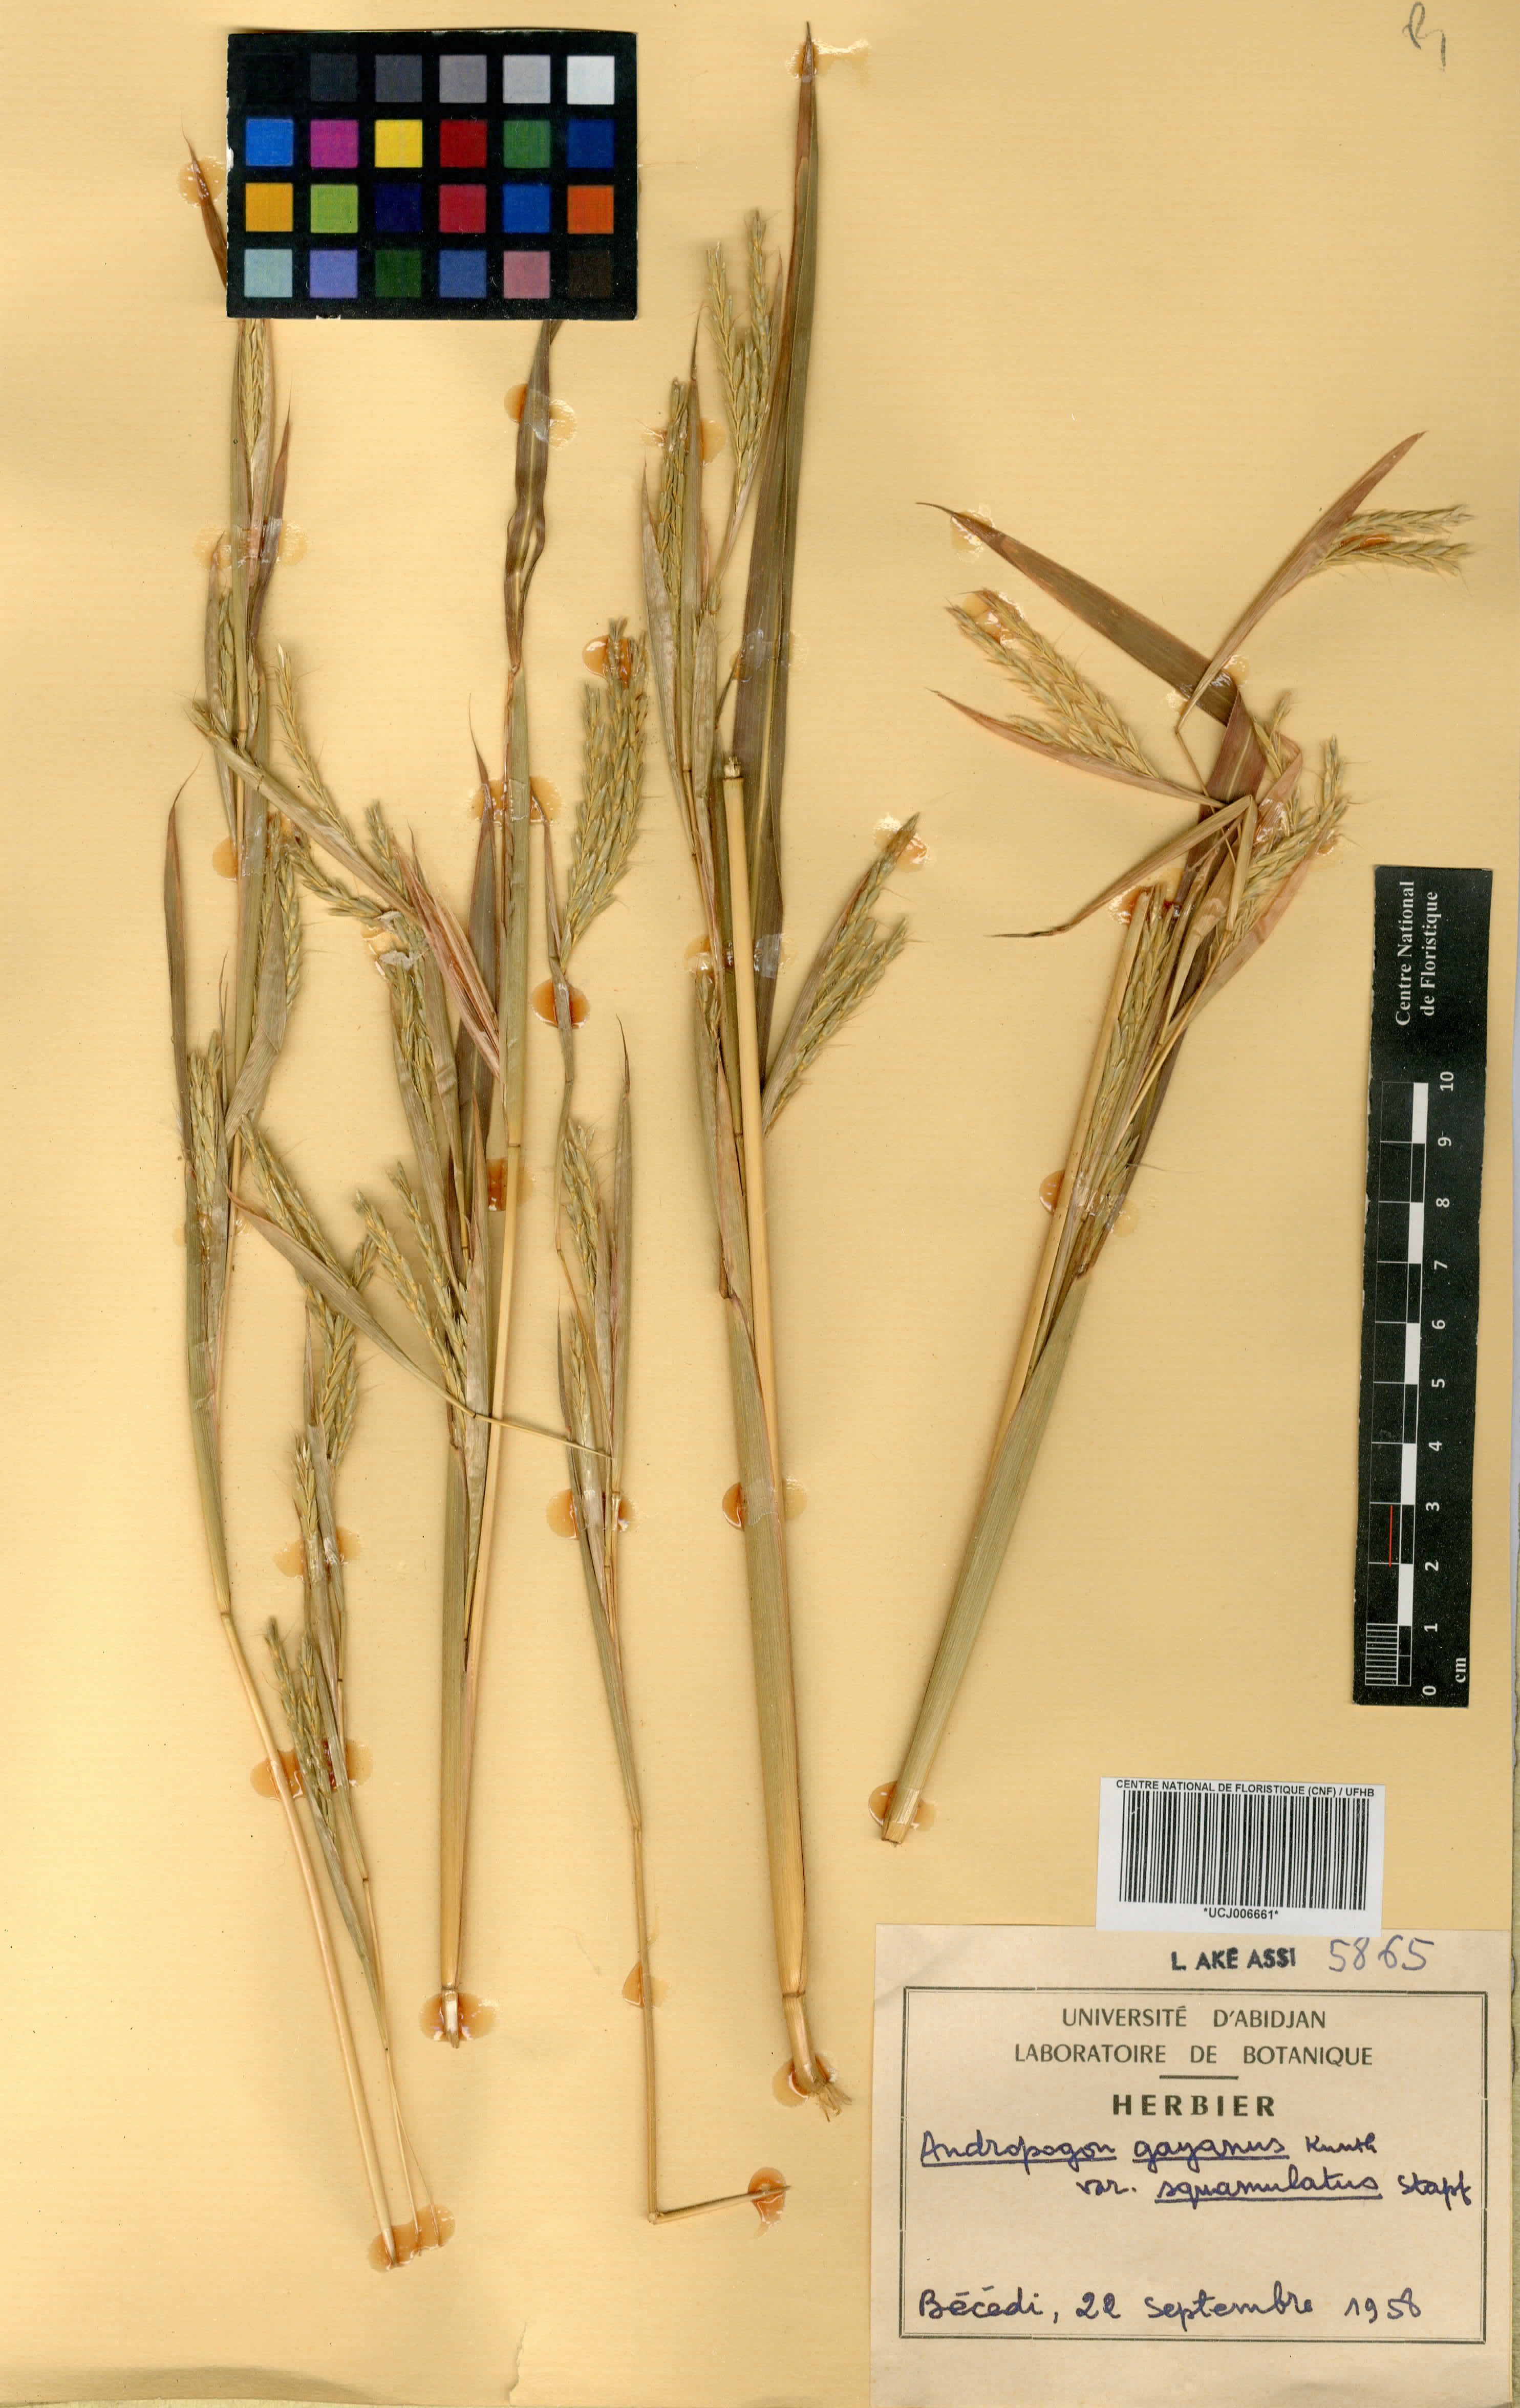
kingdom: Plantae
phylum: Tracheophyta
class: Liliopsida
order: Poales
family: Poaceae
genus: Andropogon
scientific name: Andropogon gayanus
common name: Tambuki grass
